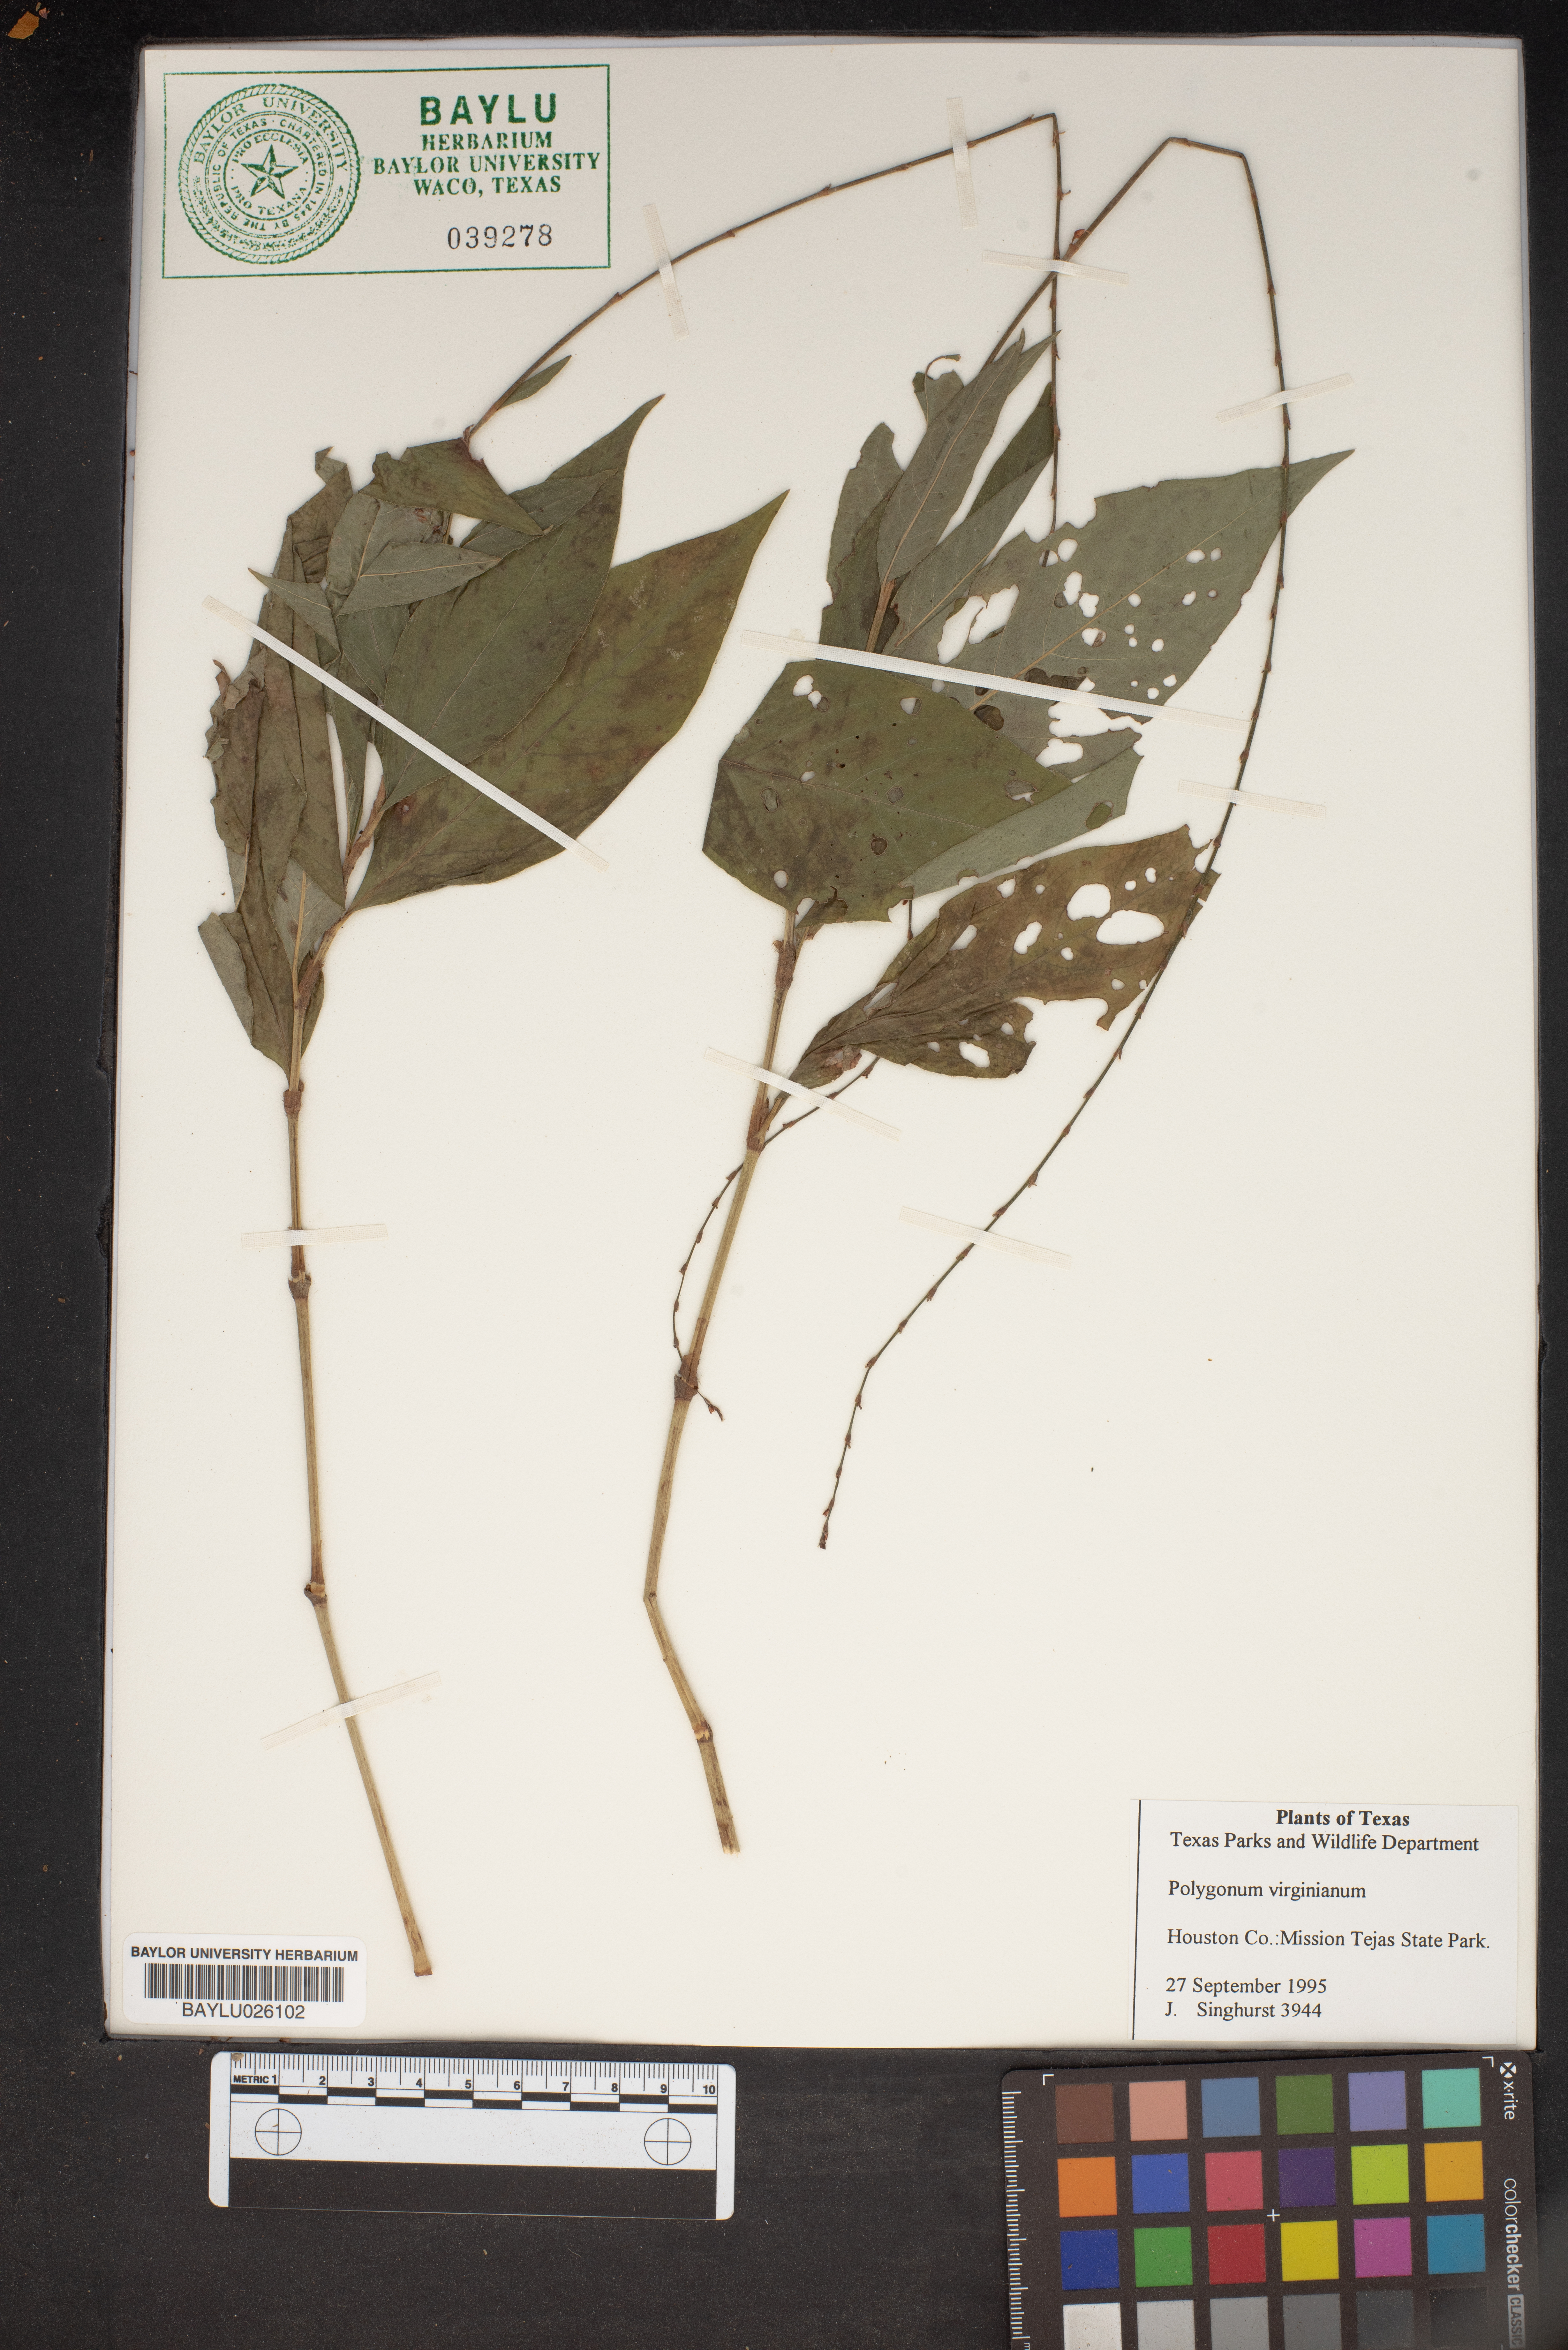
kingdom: Plantae
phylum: Tracheophyta
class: Magnoliopsida
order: Caryophyllales
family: Polygonaceae
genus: Persicaria
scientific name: Persicaria virginiana
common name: Jumpseed
